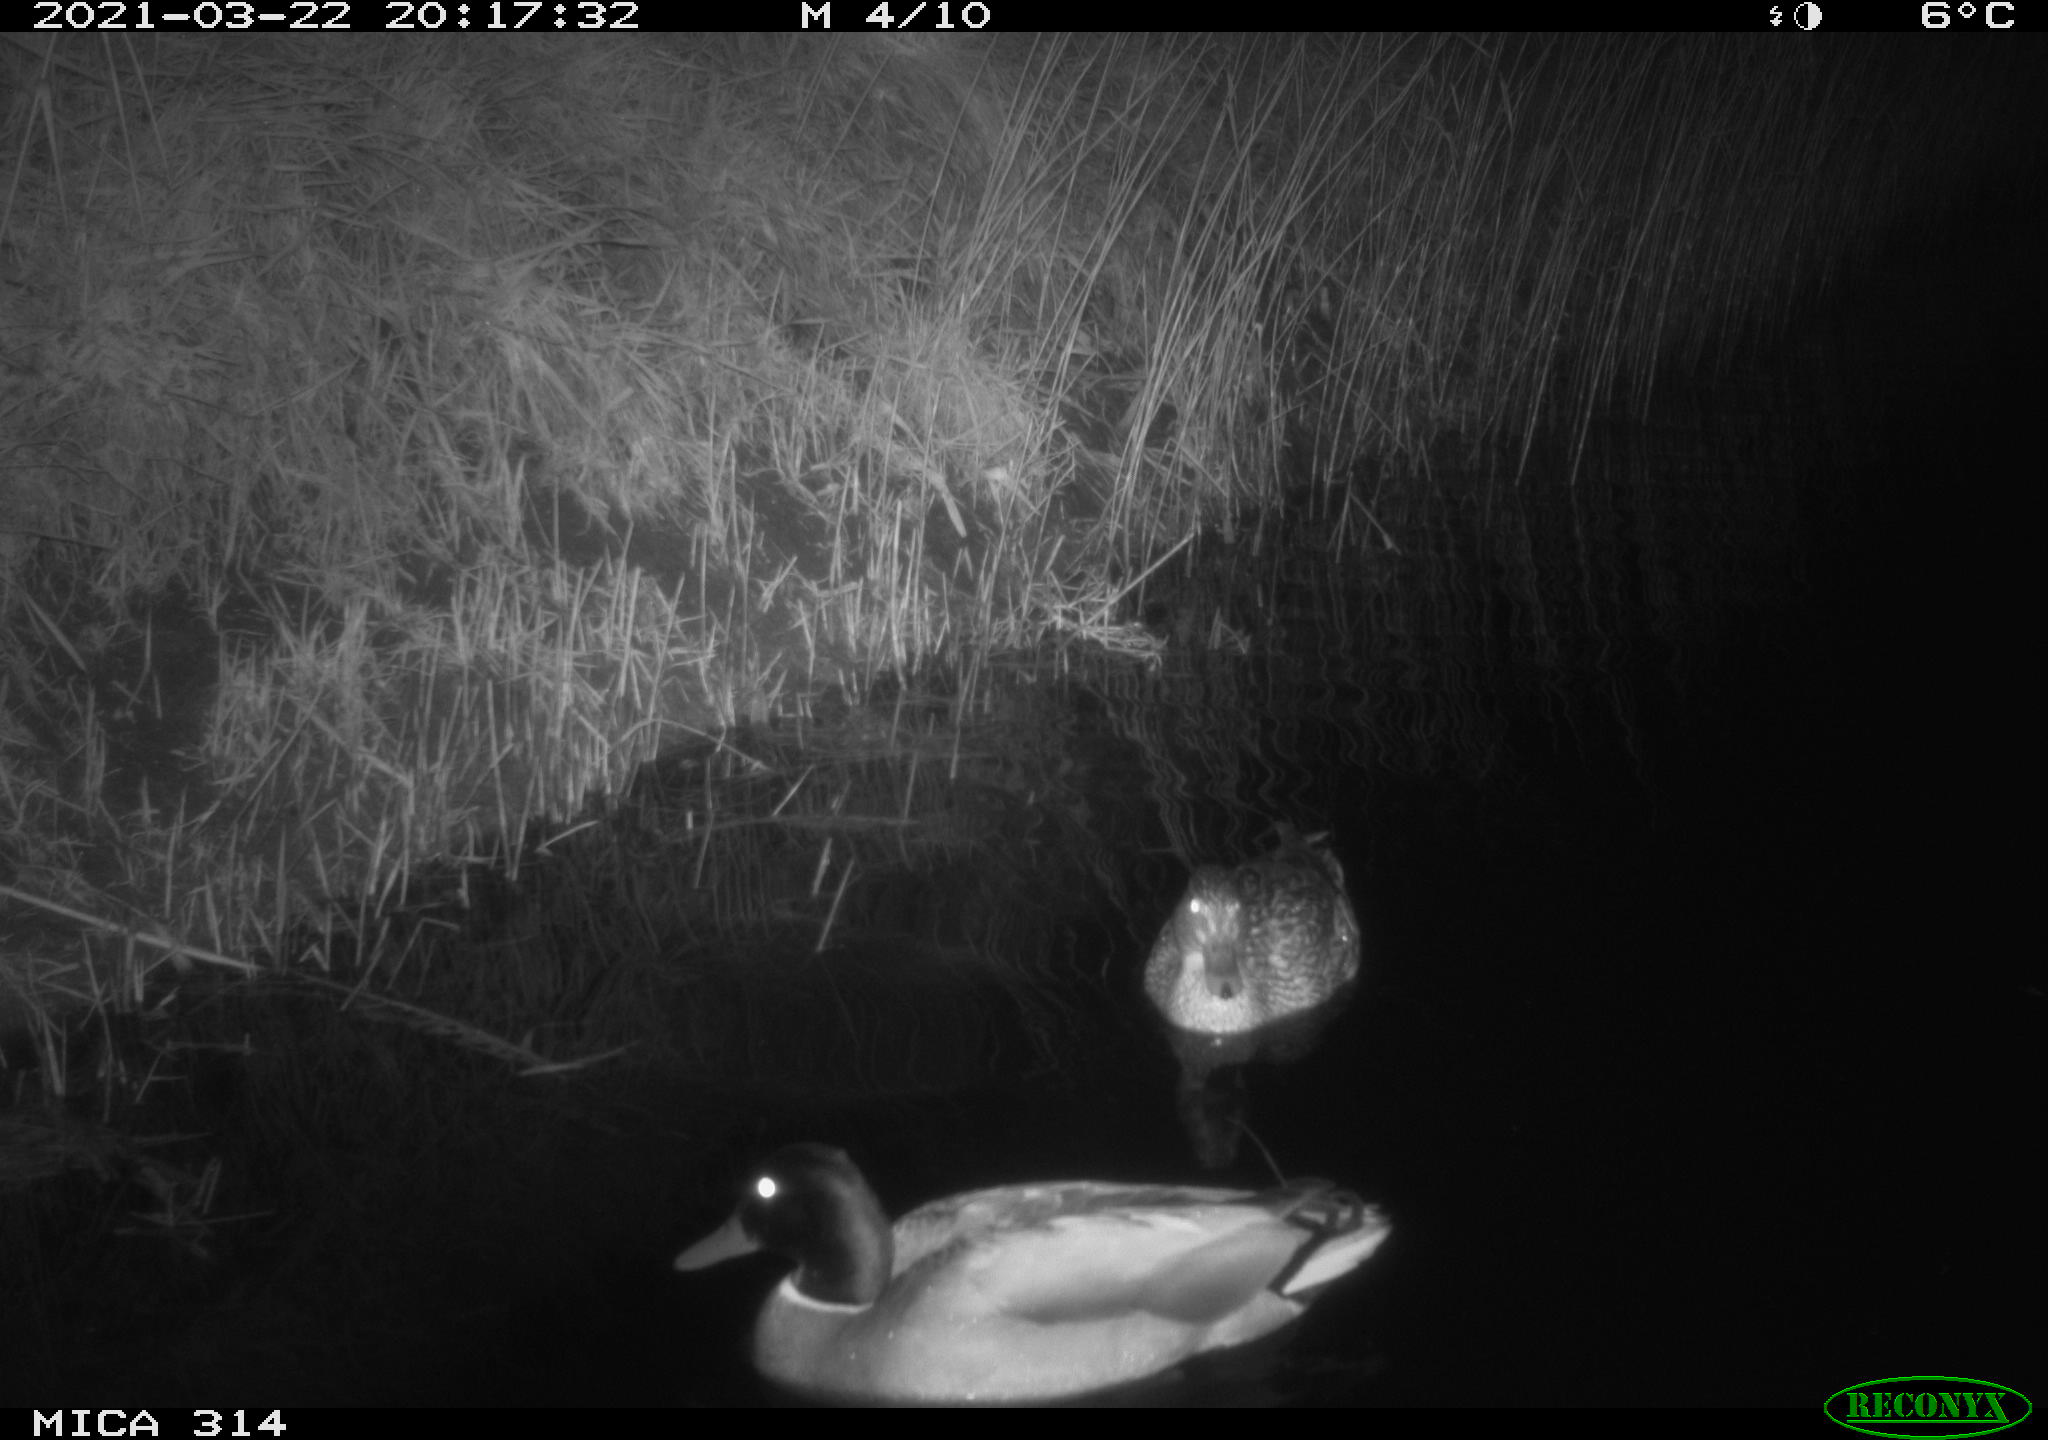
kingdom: Animalia
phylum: Chordata
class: Aves
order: Anseriformes
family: Anatidae
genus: Anas
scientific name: Anas platyrhynchos
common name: Mallard
